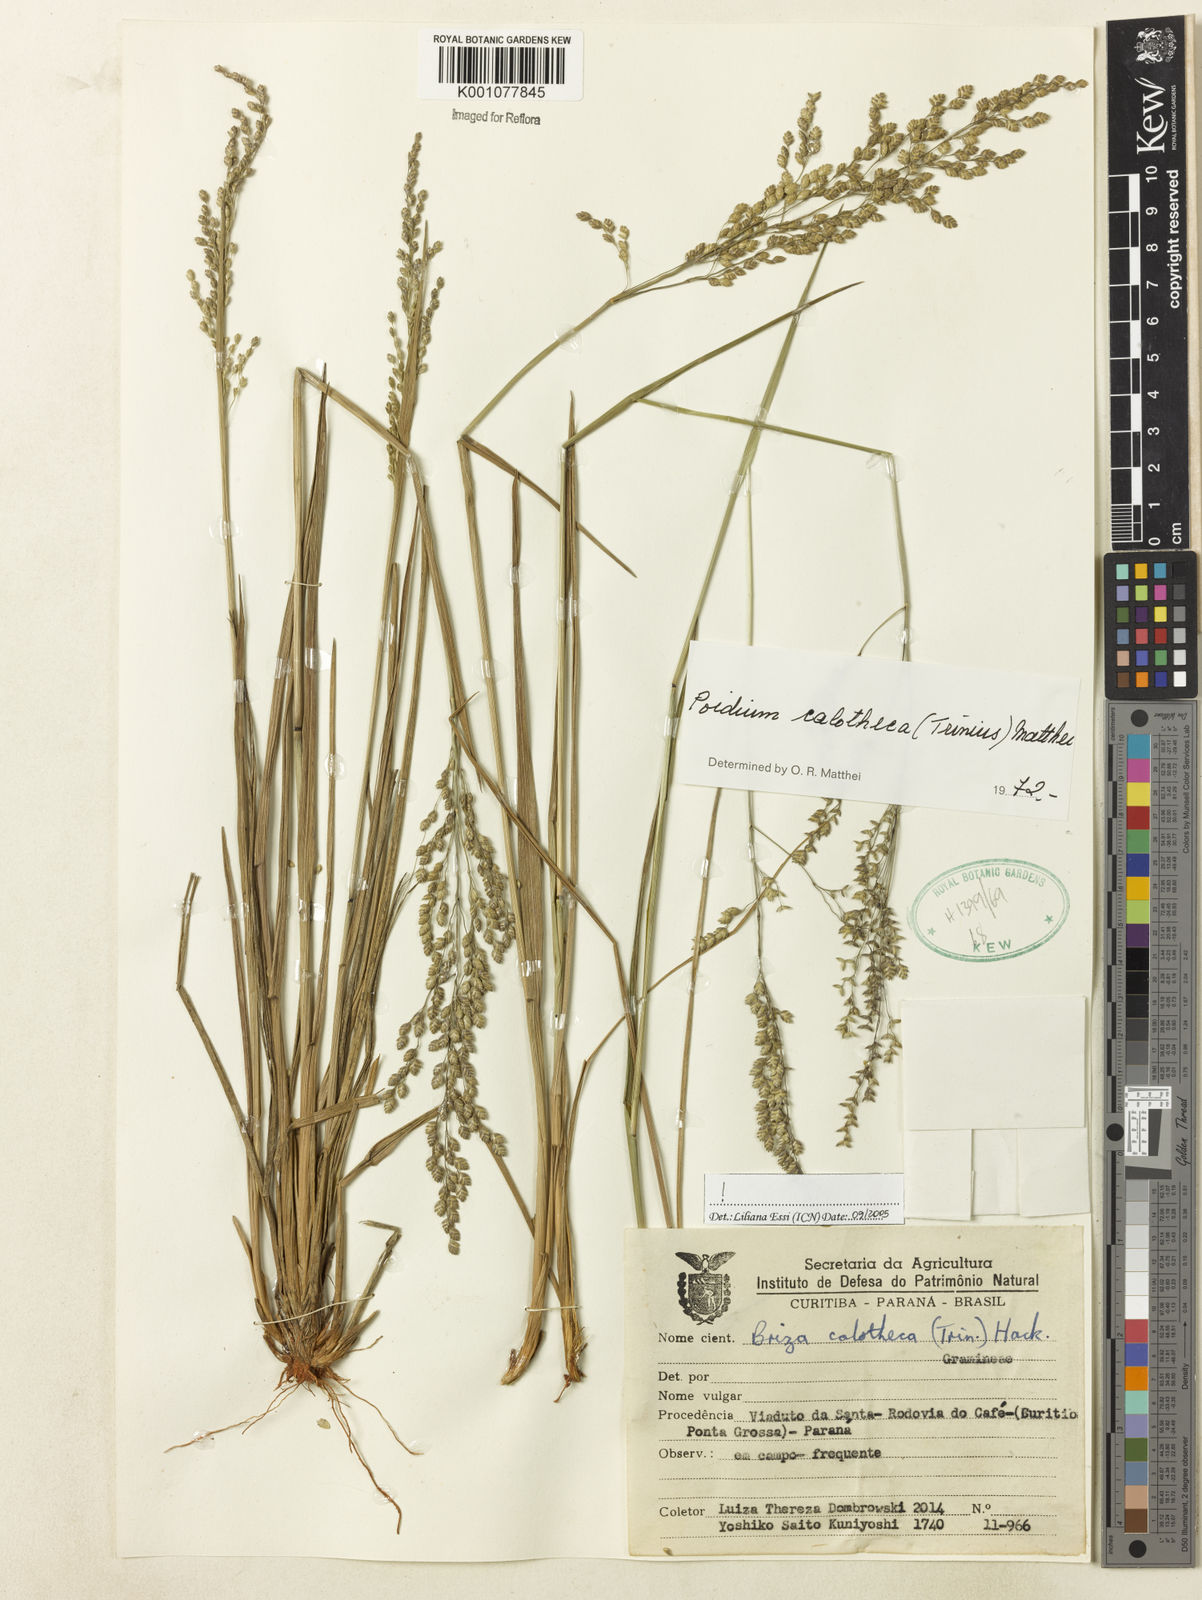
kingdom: Plantae
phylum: Tracheophyta
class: Liliopsida
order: Poales
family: Poaceae
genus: Poidium
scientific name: Poidium calotheca
